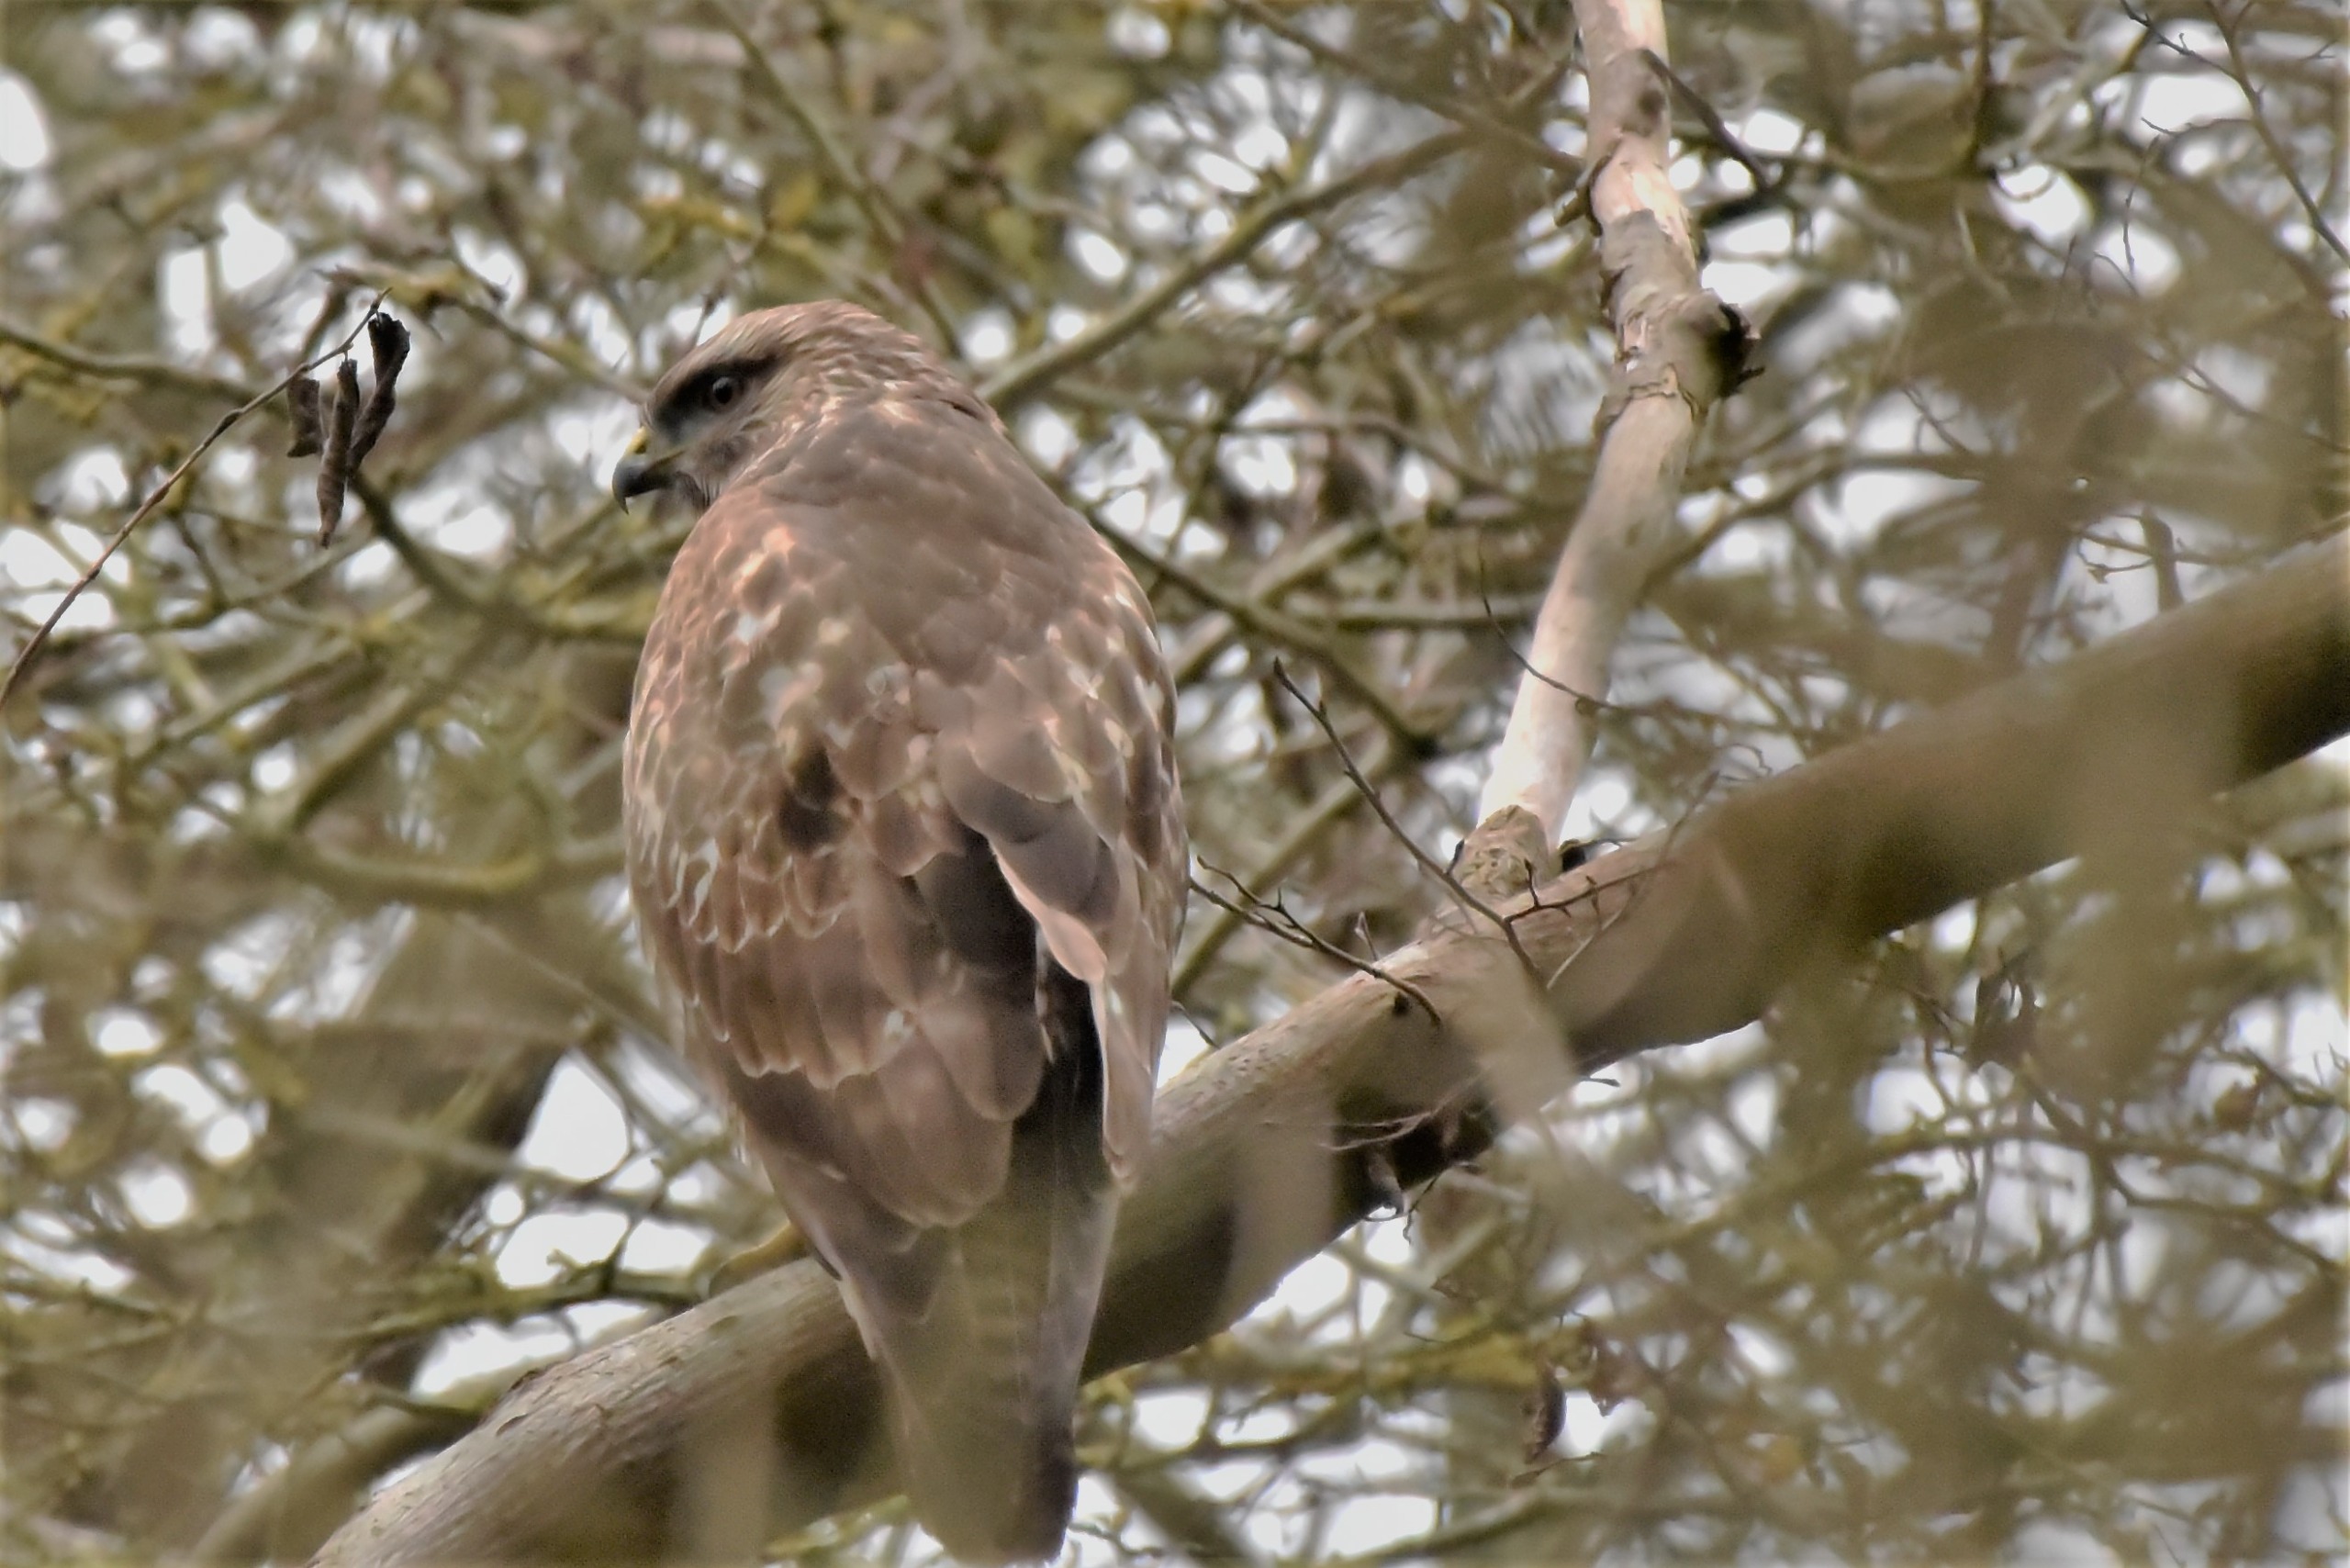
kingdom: Animalia
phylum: Chordata
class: Aves
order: Accipitriformes
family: Accipitridae
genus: Buteo
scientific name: Buteo buteo
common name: Musvåge
